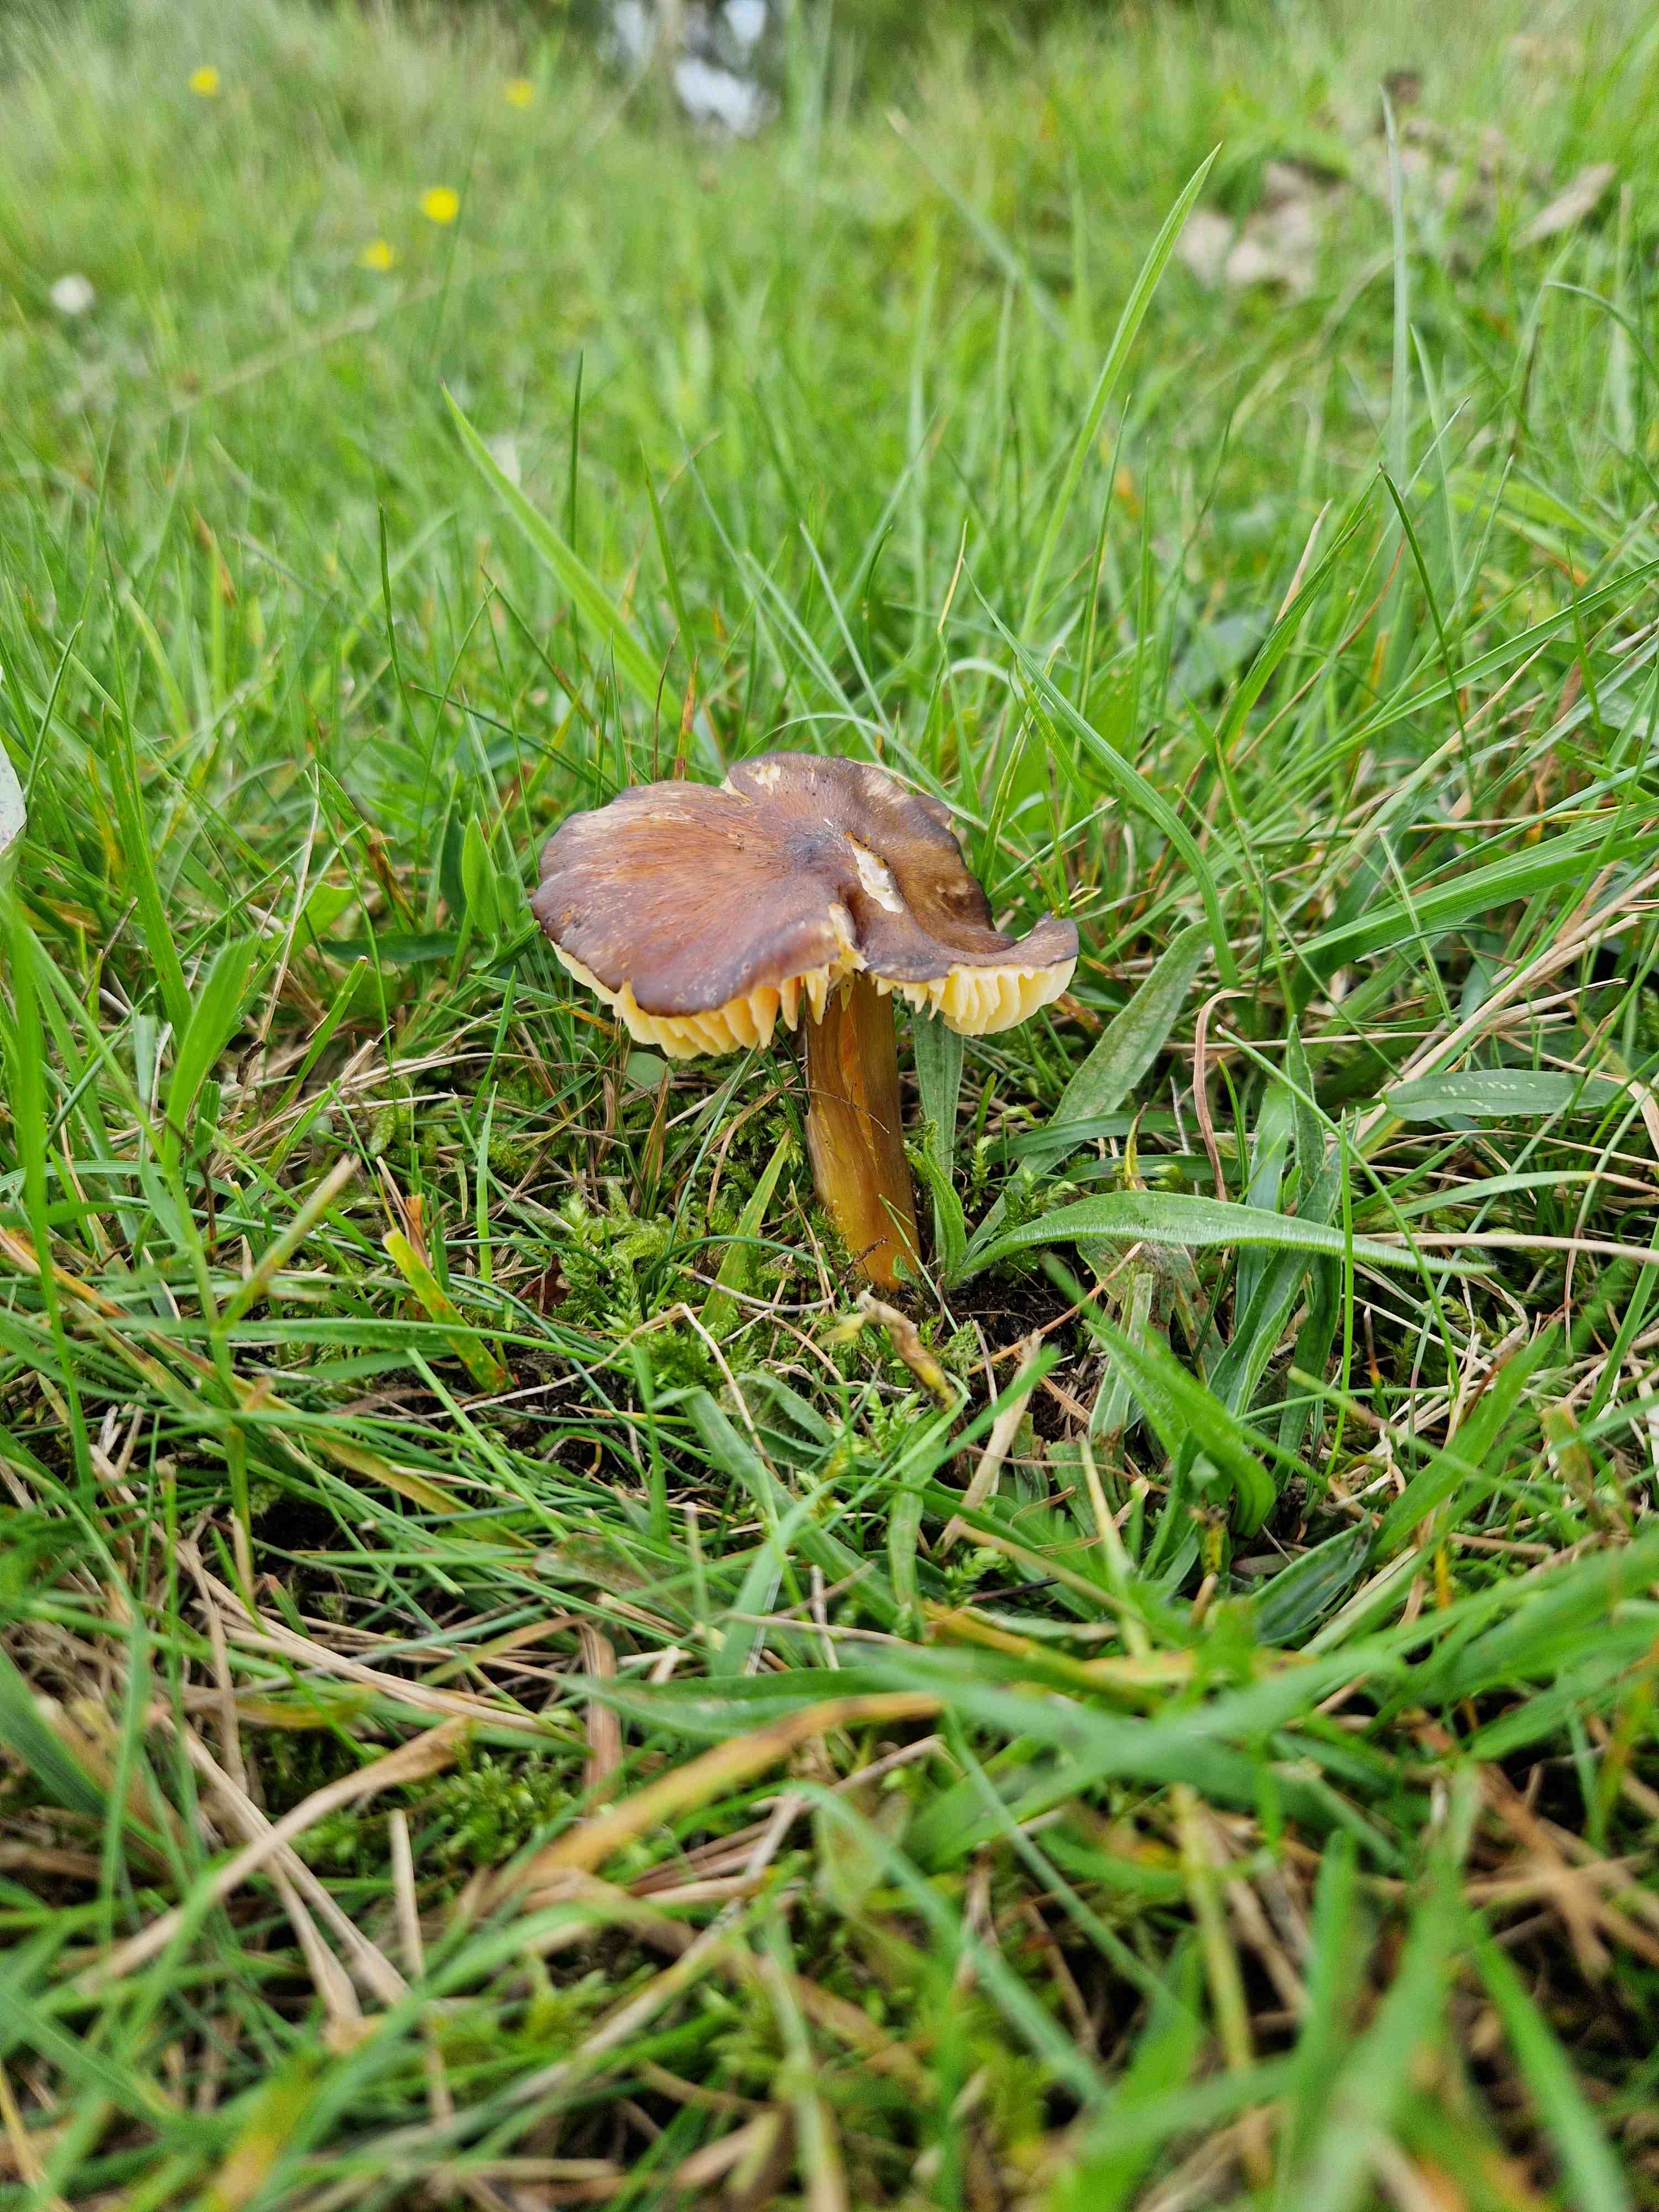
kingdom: Fungi
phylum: Basidiomycota
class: Agaricomycetes
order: Agaricales
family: Hygrophoraceae
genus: Hygrocybe
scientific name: Hygrocybe spadicea
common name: daddelbrun vokshat
